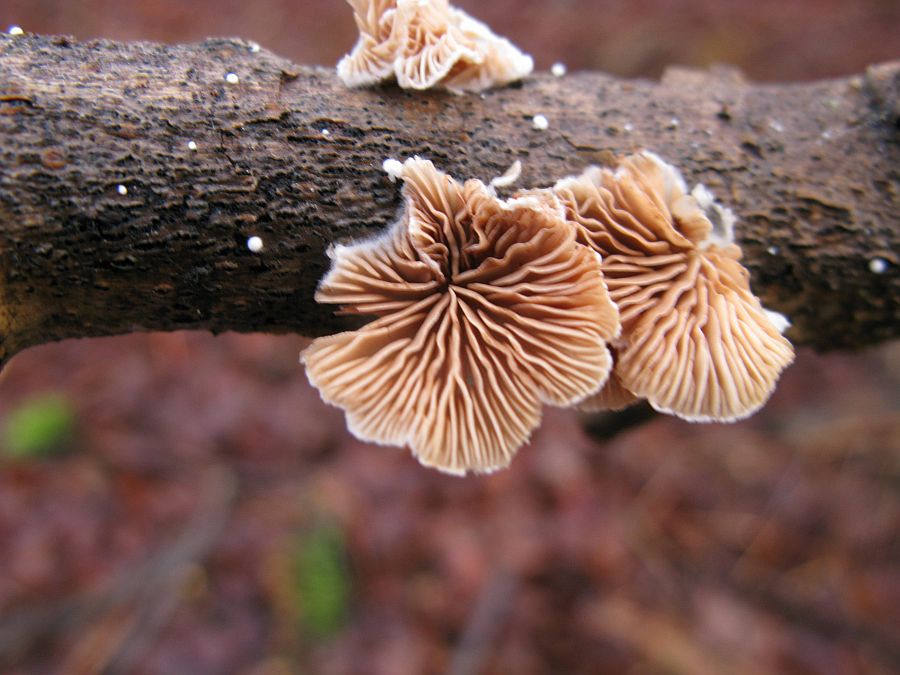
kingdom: Fungi
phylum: Basidiomycota
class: Agaricomycetes
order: Agaricales
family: Crepidotaceae
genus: Crepidotus
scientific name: Crepidotus cesatii
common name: almindelig muslingesvamp
